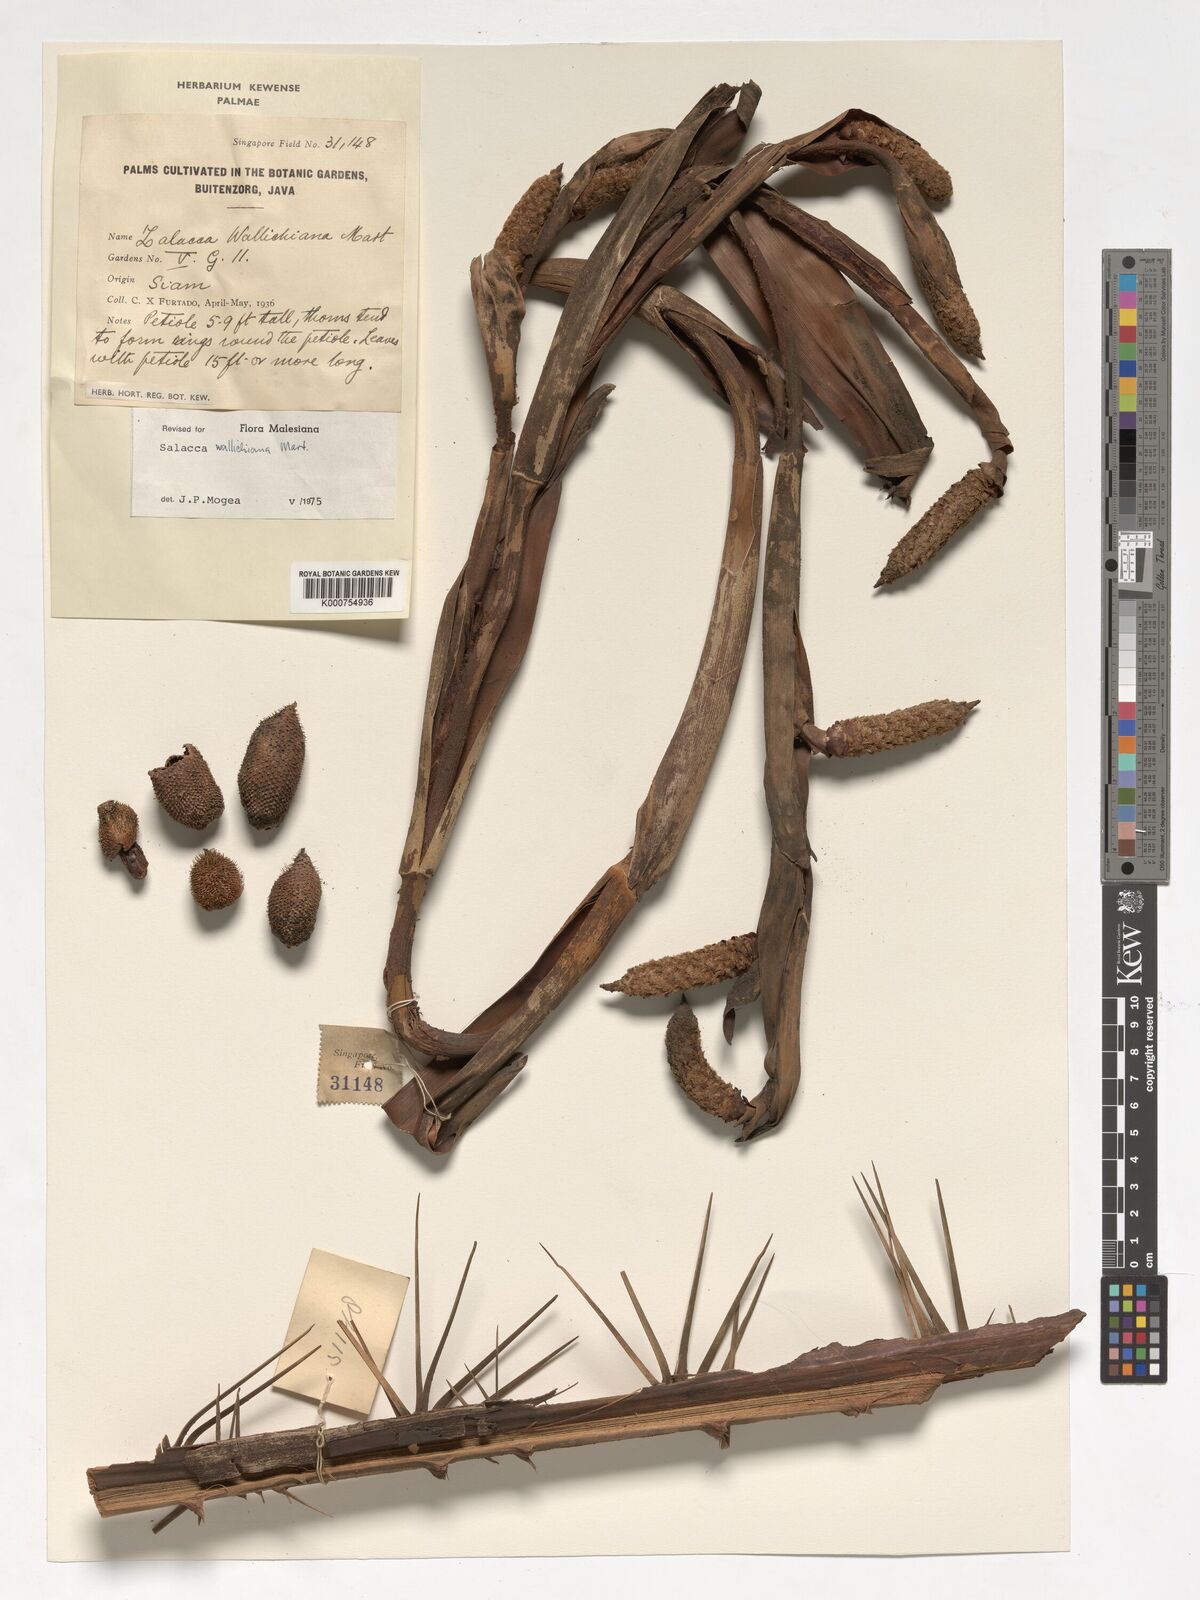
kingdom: Plantae
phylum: Tracheophyta
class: Liliopsida
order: Arecales
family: Arecaceae
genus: Salacca
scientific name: Salacca wallichiana
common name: Rakum palm
